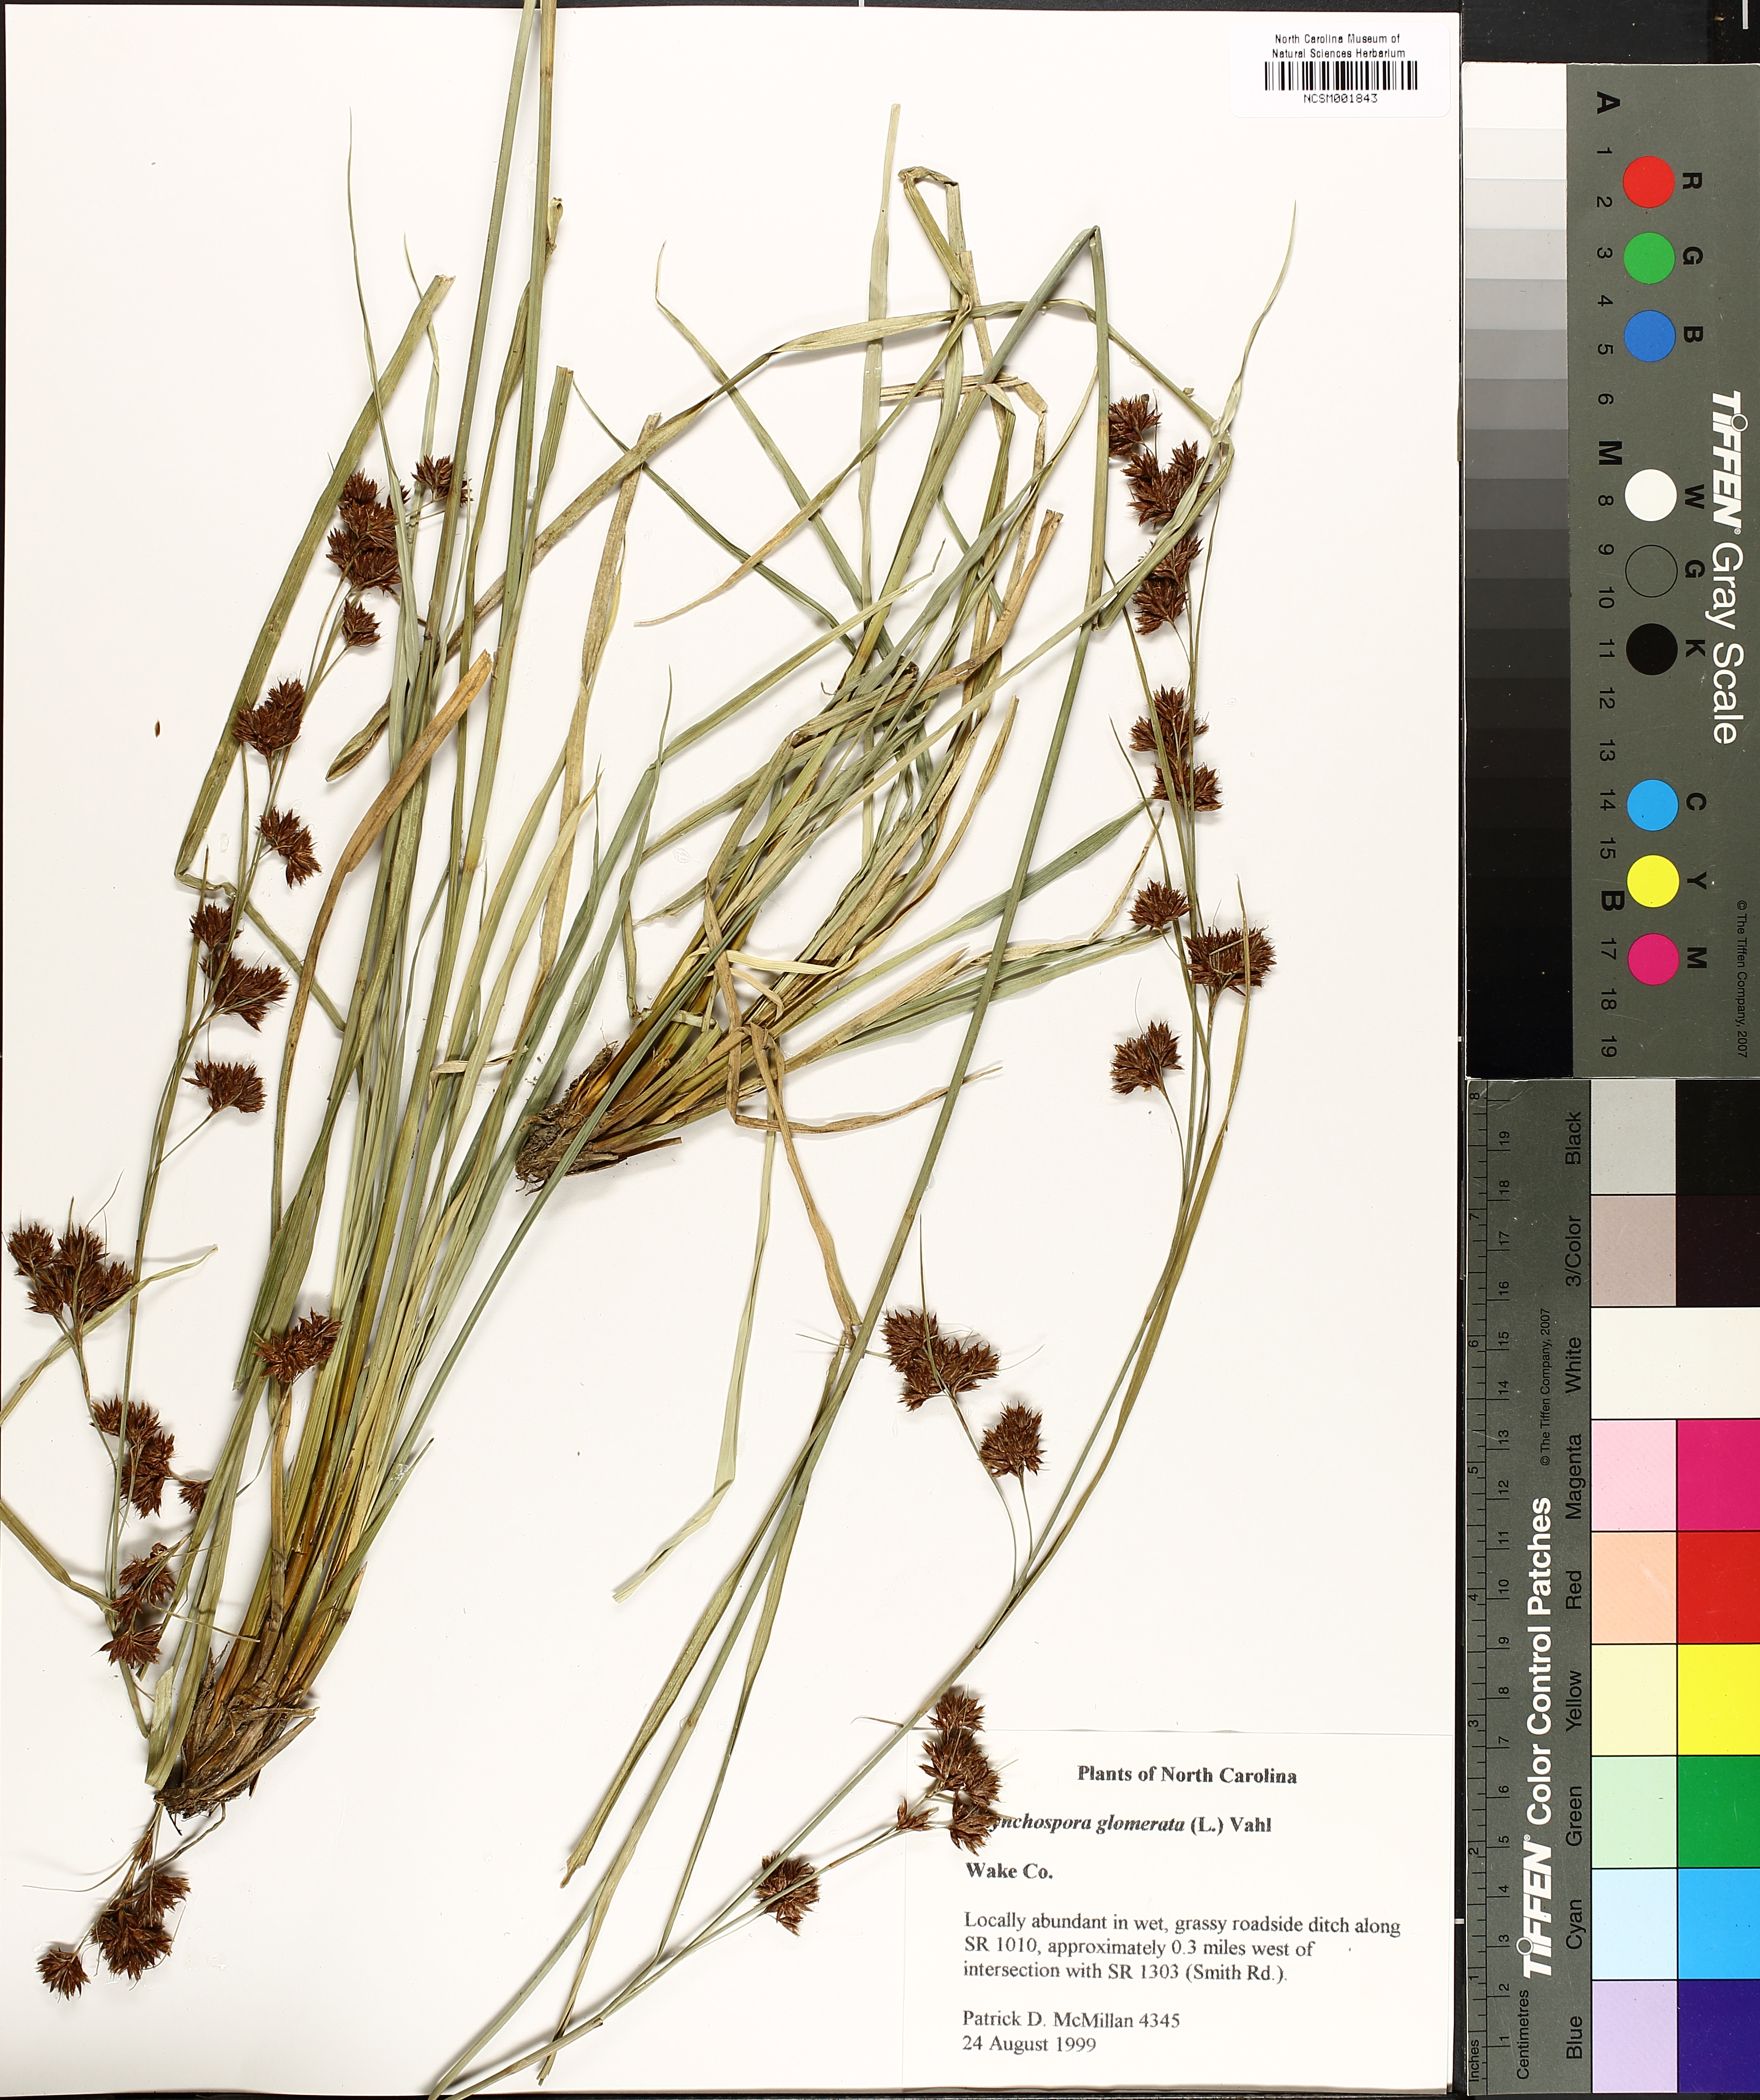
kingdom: Plantae
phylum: Tracheophyta
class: Liliopsida
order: Poales
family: Cyperaceae
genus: Rhynchospora
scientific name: Rhynchospora glomerata
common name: Cluster beak sedge
